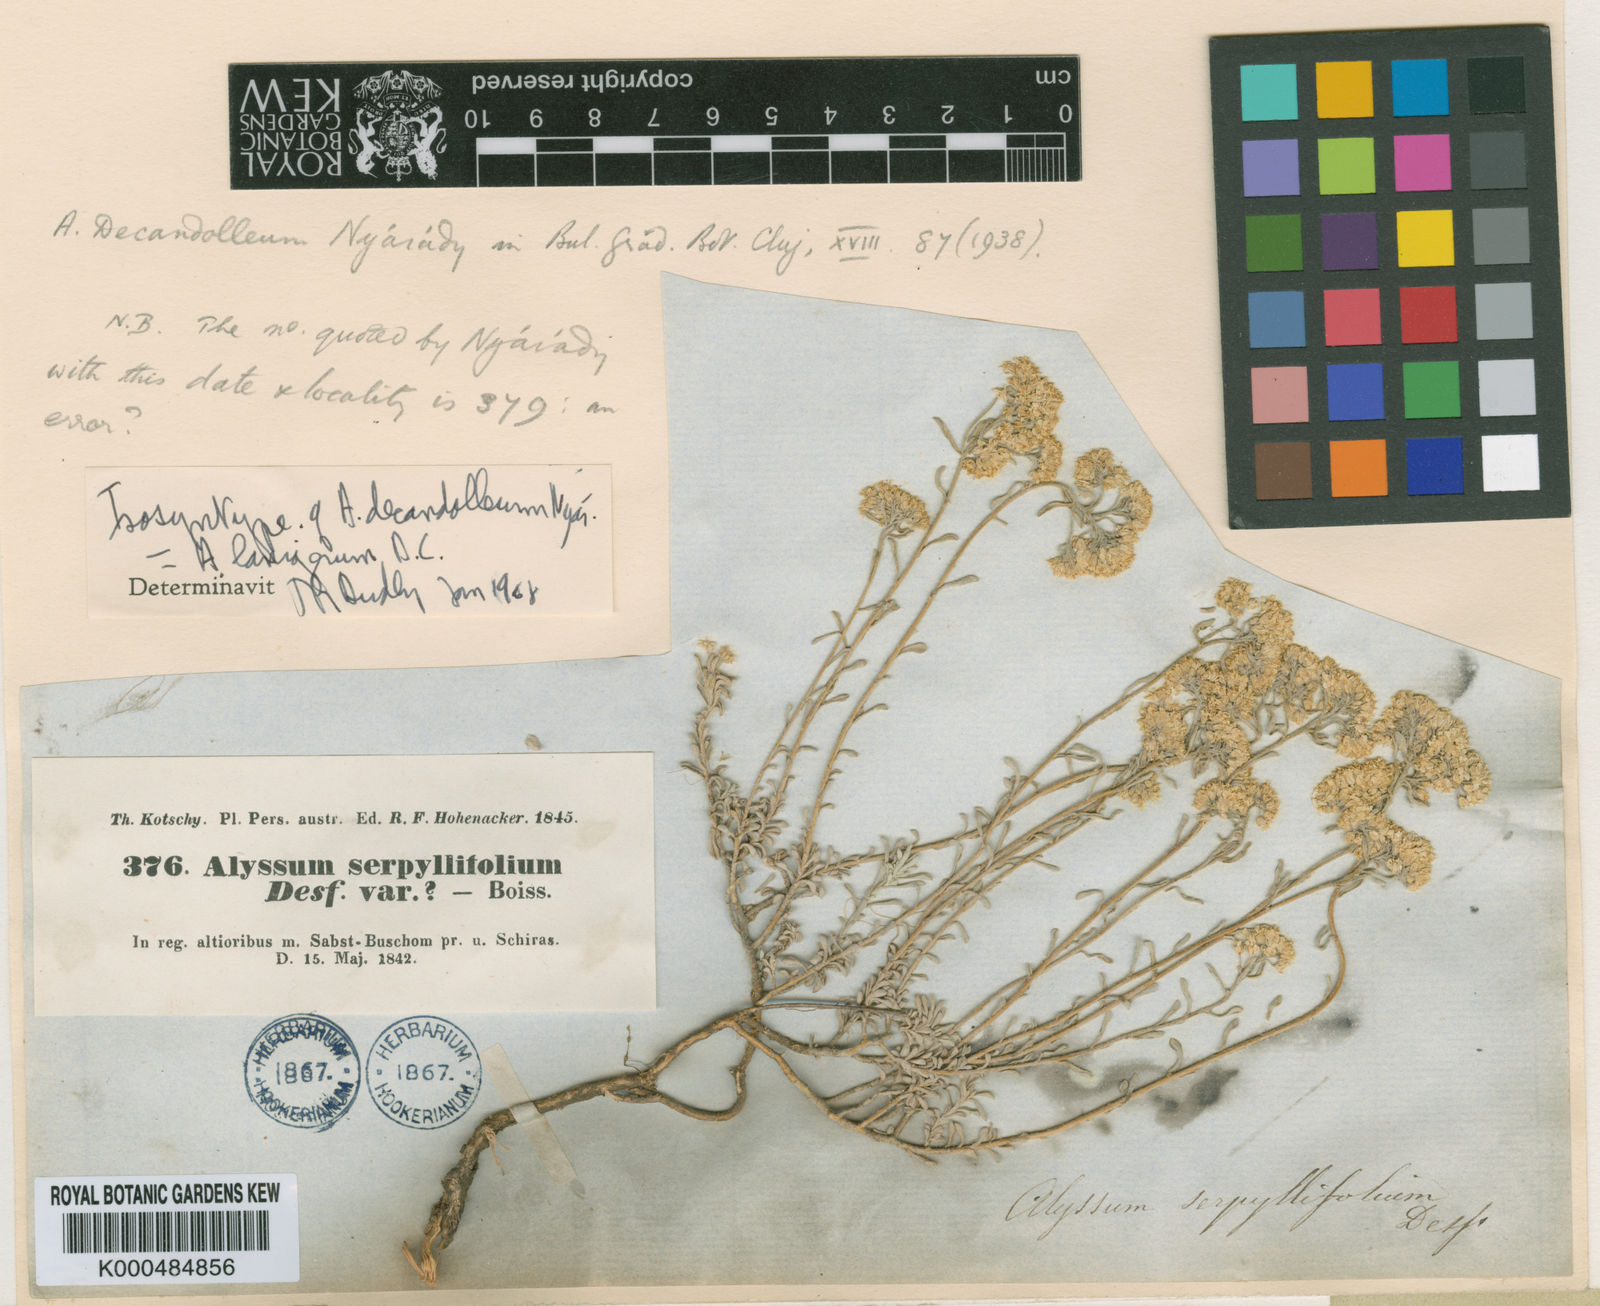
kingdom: Plantae
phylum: Tracheophyta
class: Magnoliopsida
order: Brassicales
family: Brassicaceae
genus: Odontarrhena
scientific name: Odontarrhena tortuosa
